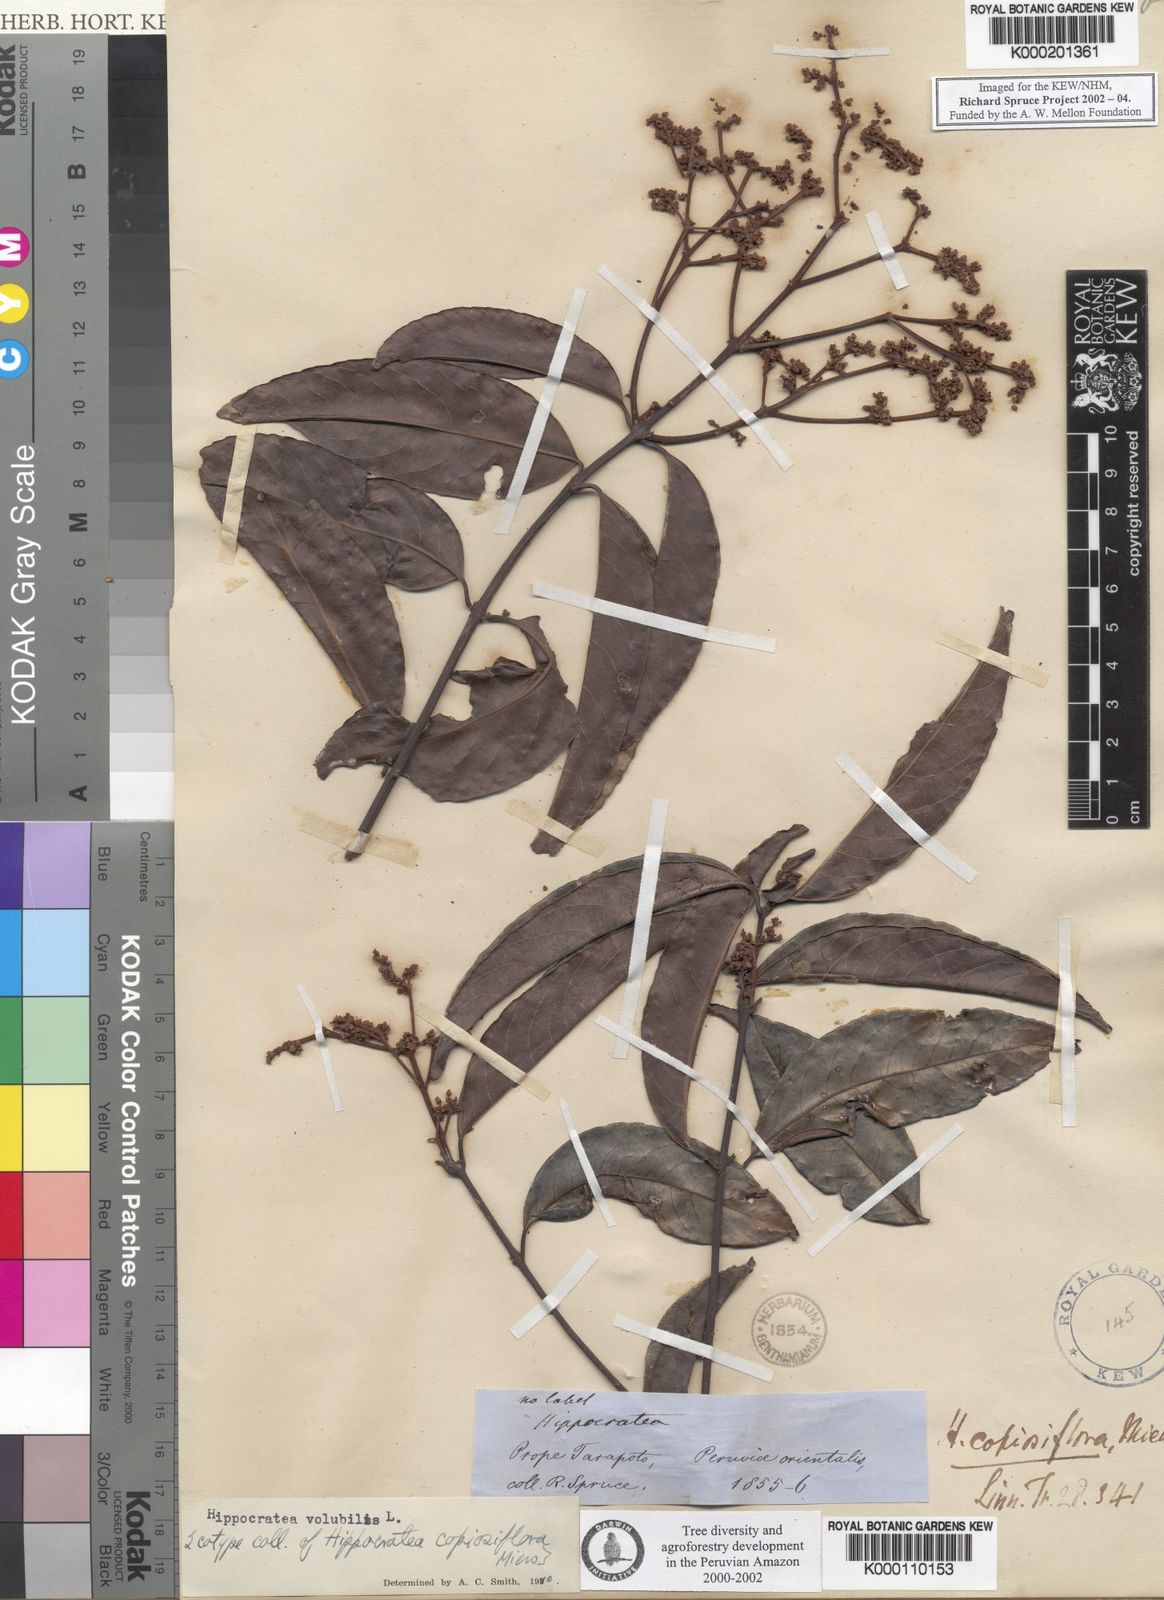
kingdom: Plantae
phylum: Tracheophyta
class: Magnoliopsida
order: Brassicales
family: Capparaceae
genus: Cynophalla
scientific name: Cynophalla sclerophylla
